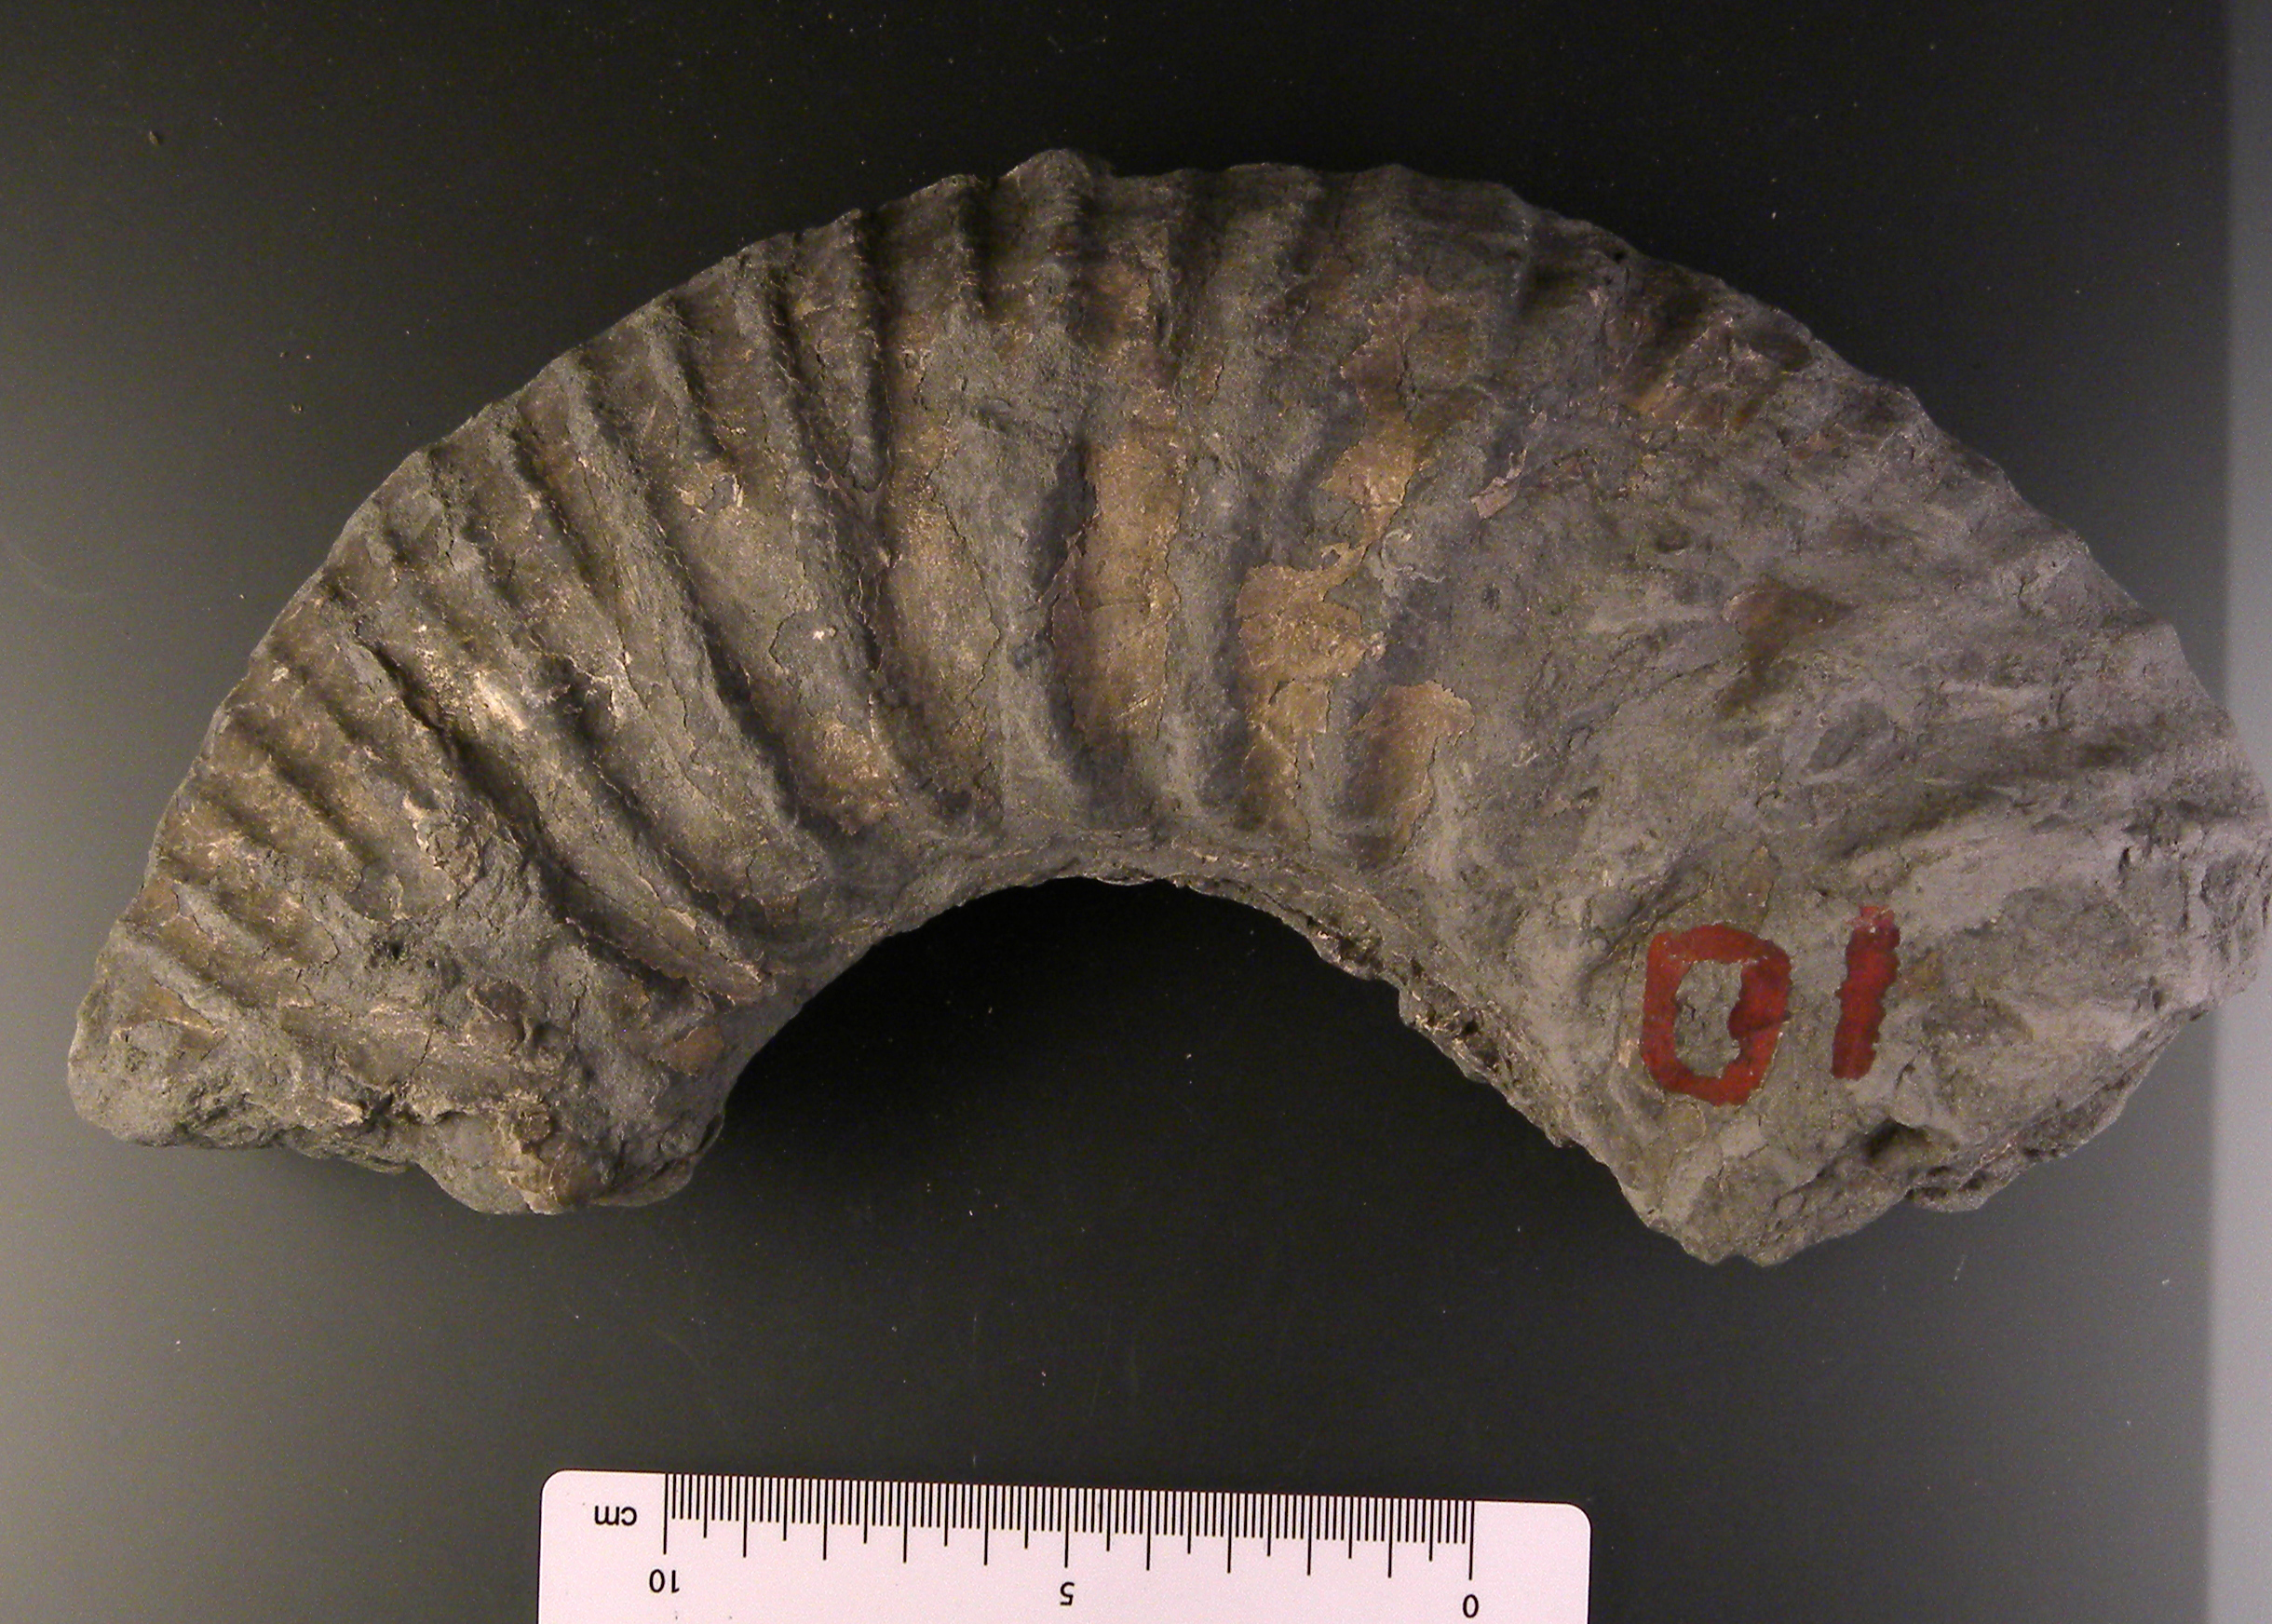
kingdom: Animalia
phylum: Mollusca
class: Cephalopoda
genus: Ammonites
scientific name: Ammonites biplex
